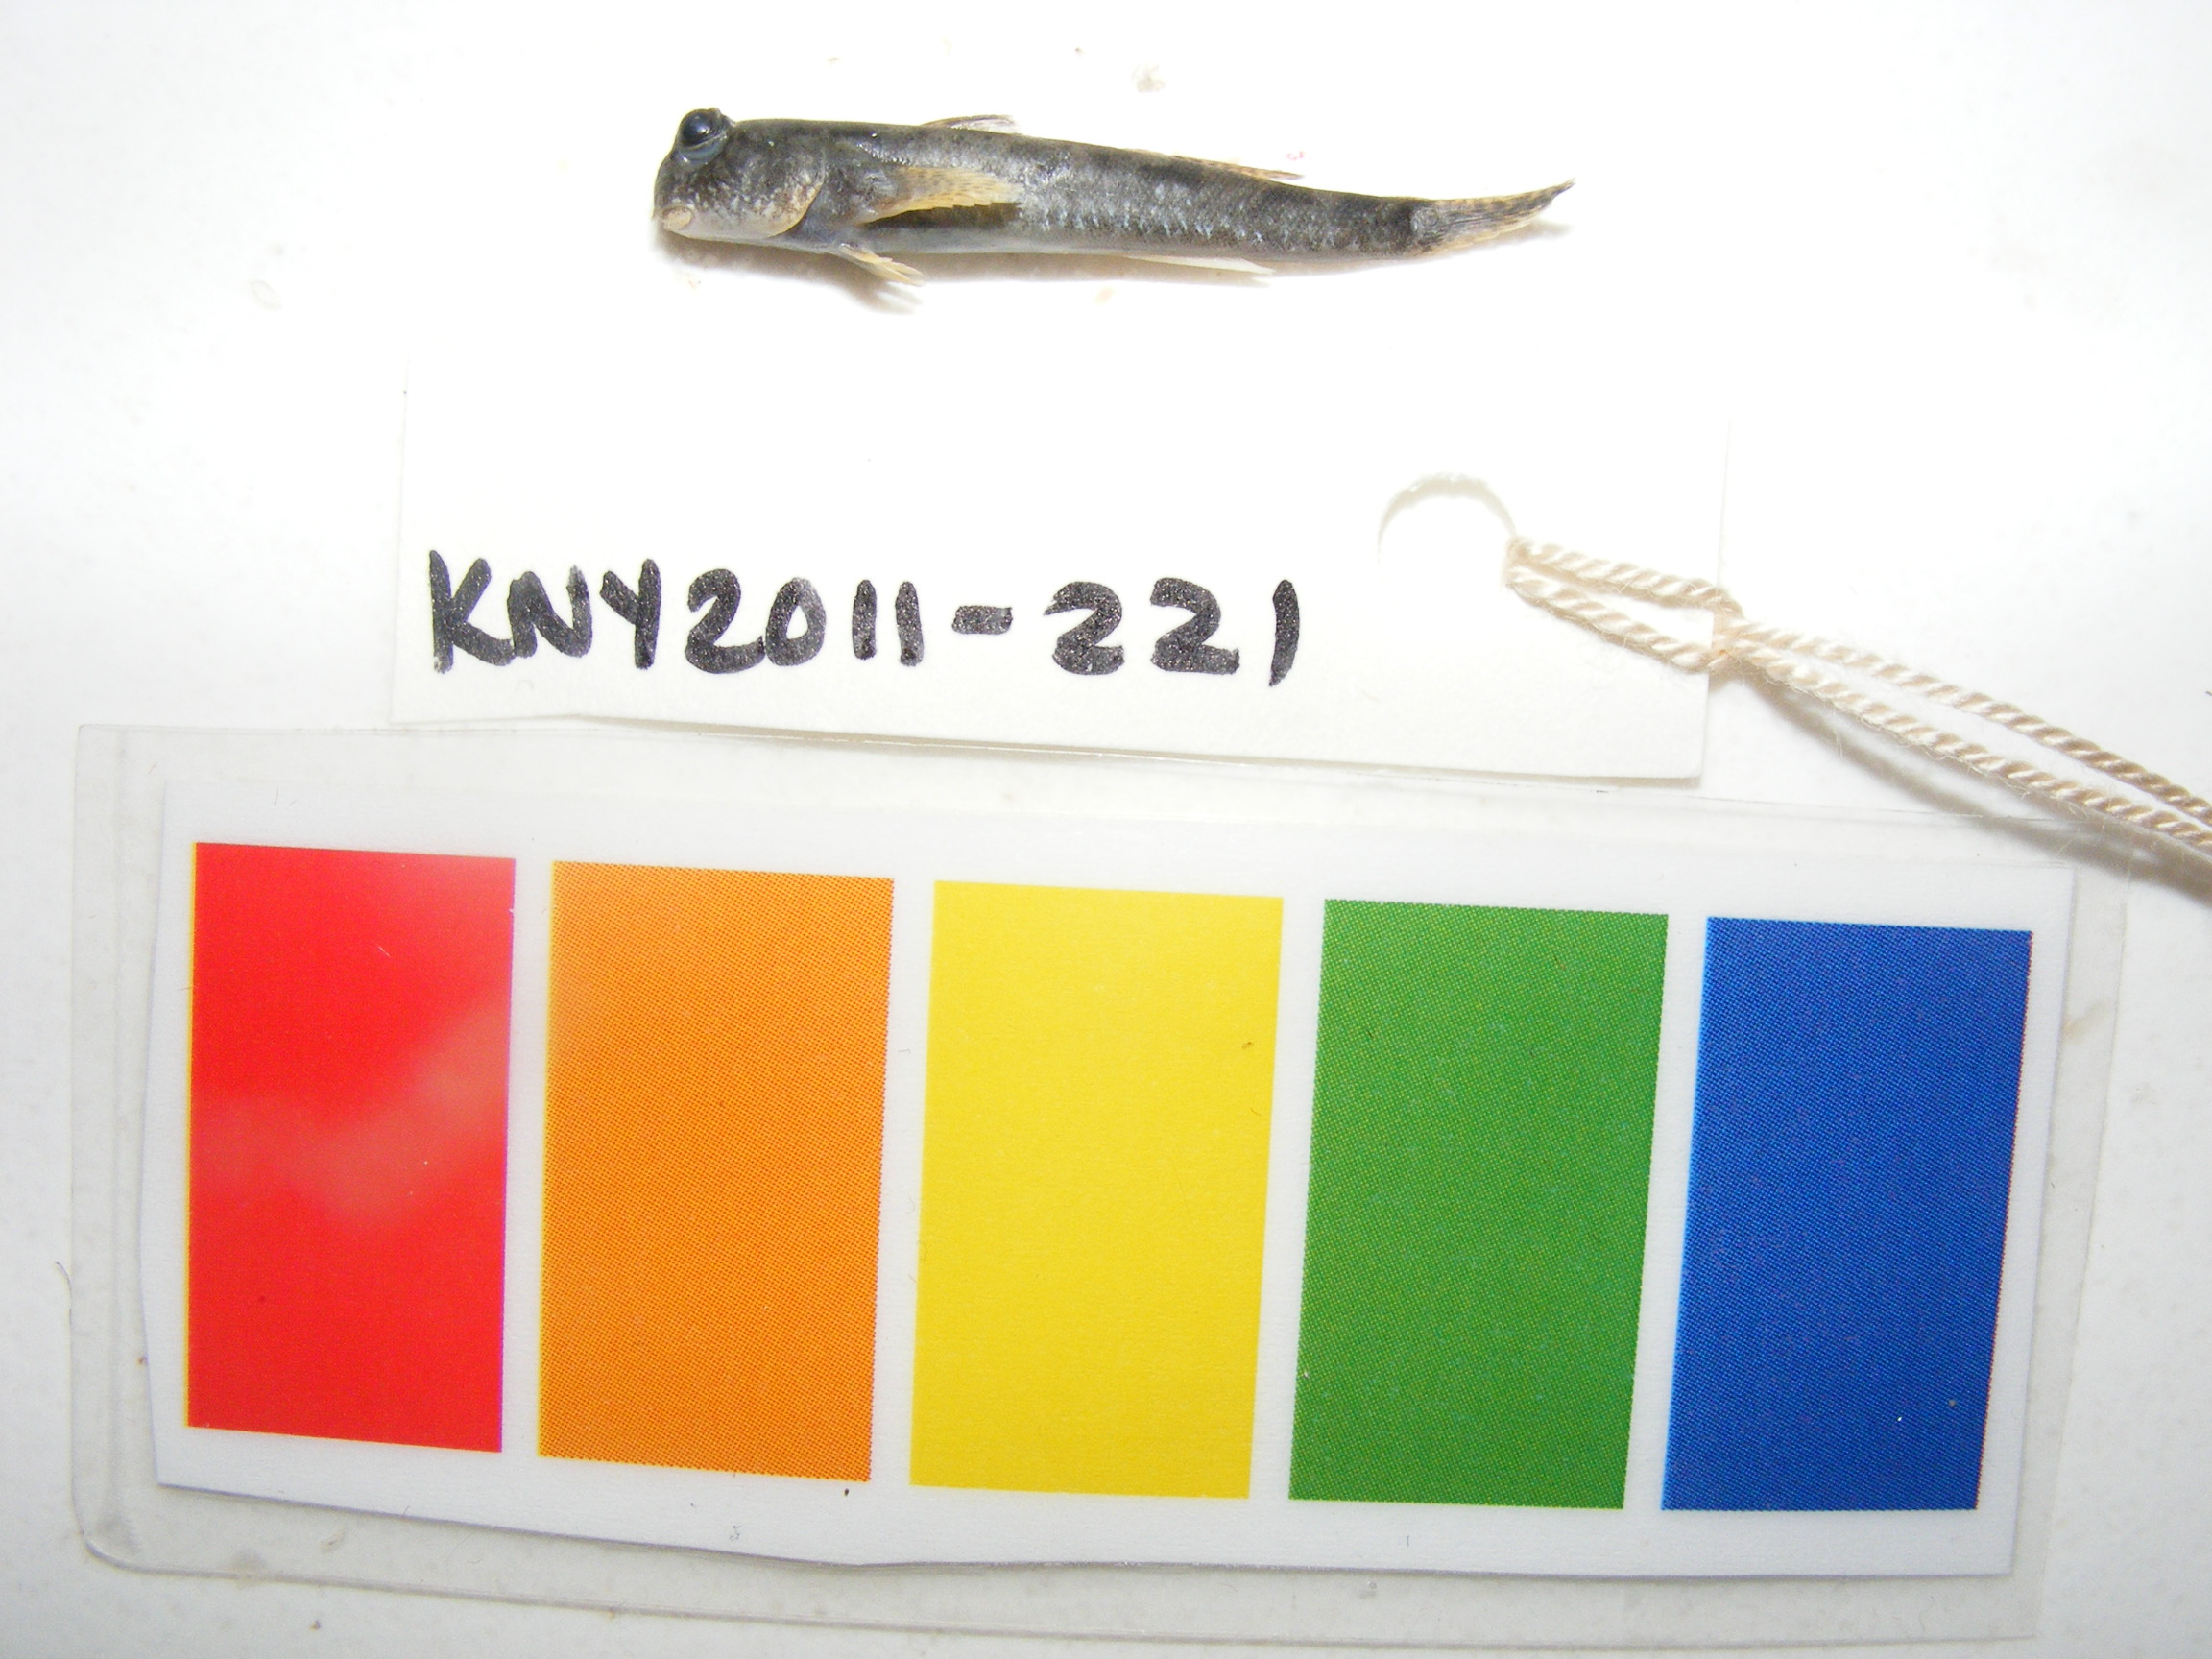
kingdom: Animalia
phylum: Chordata
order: Perciformes
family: Gobiidae
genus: Periophthalmus
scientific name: Periophthalmus
